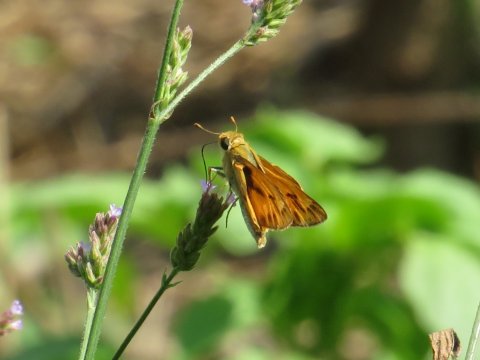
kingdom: Animalia
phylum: Arthropoda
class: Insecta
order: Lepidoptera
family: Hesperiidae
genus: Hylephila
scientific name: Hylephila phyleus
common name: Fiery Skipper
